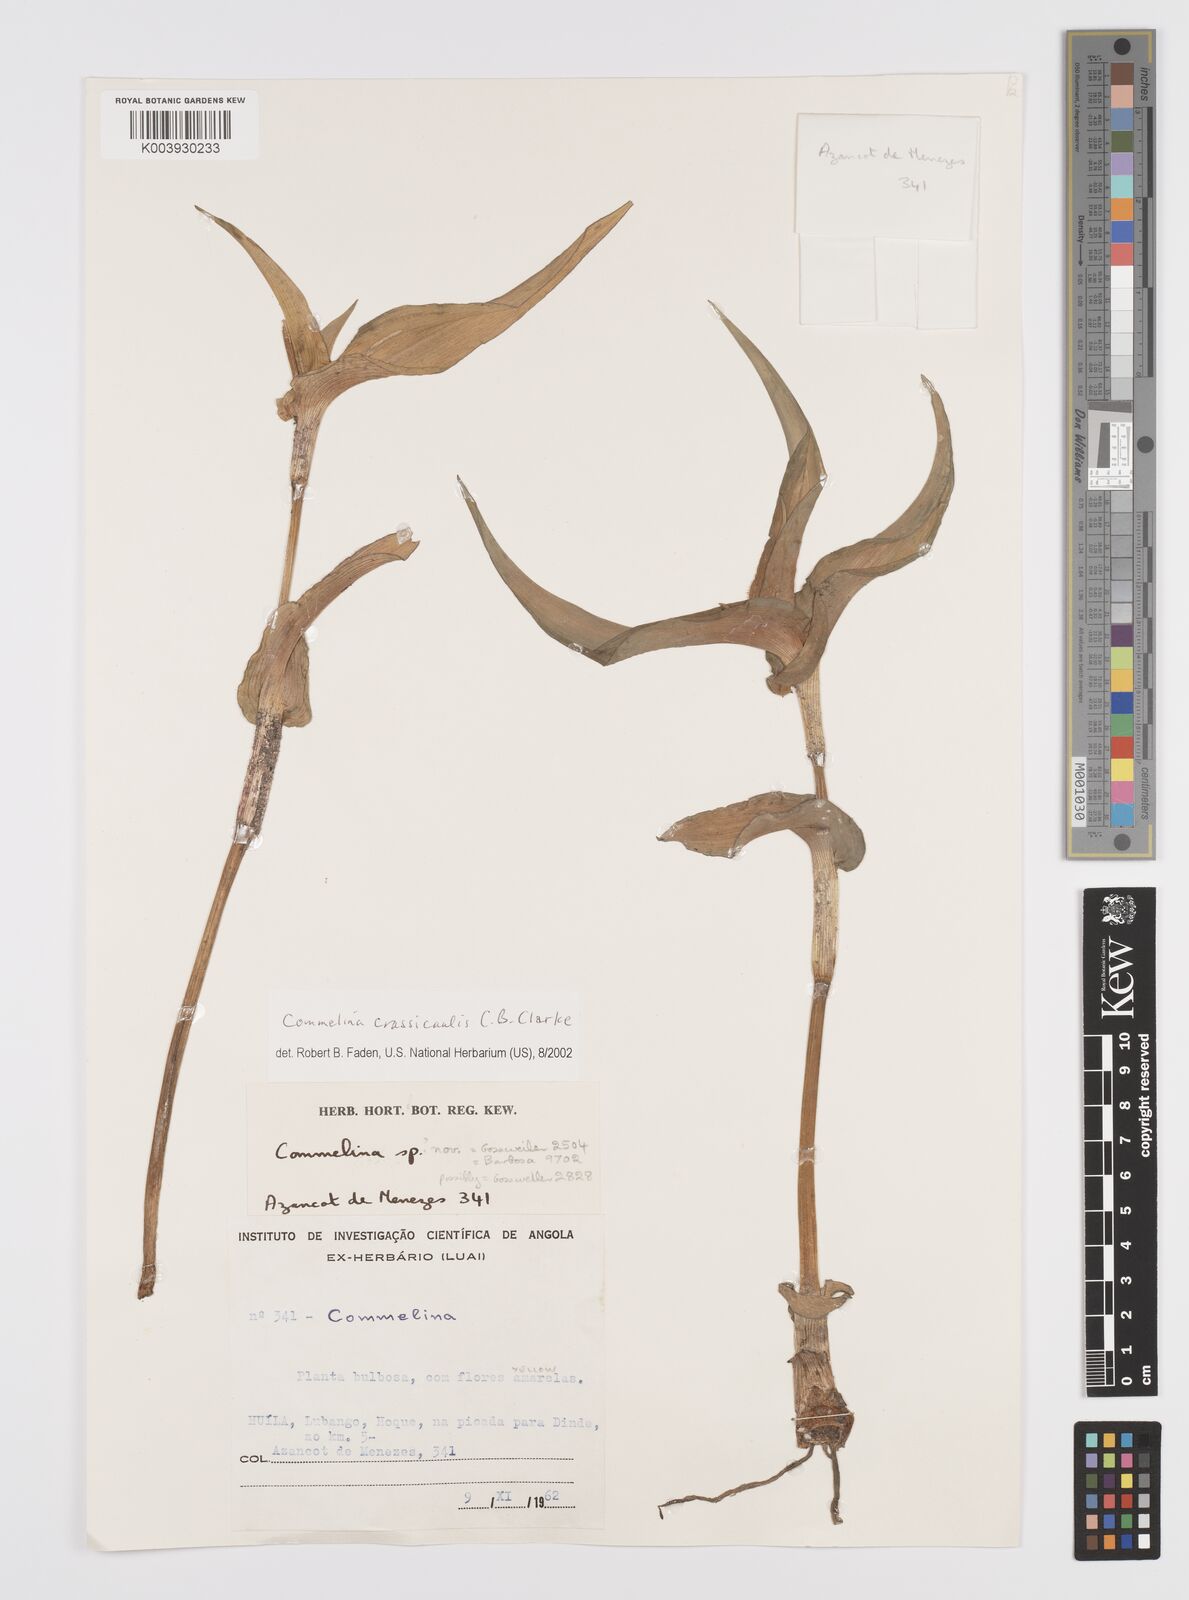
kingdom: Plantae
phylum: Tracheophyta
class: Liliopsida
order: Commelinales
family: Commelinaceae
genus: Commelina
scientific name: Commelina crassicaulis
